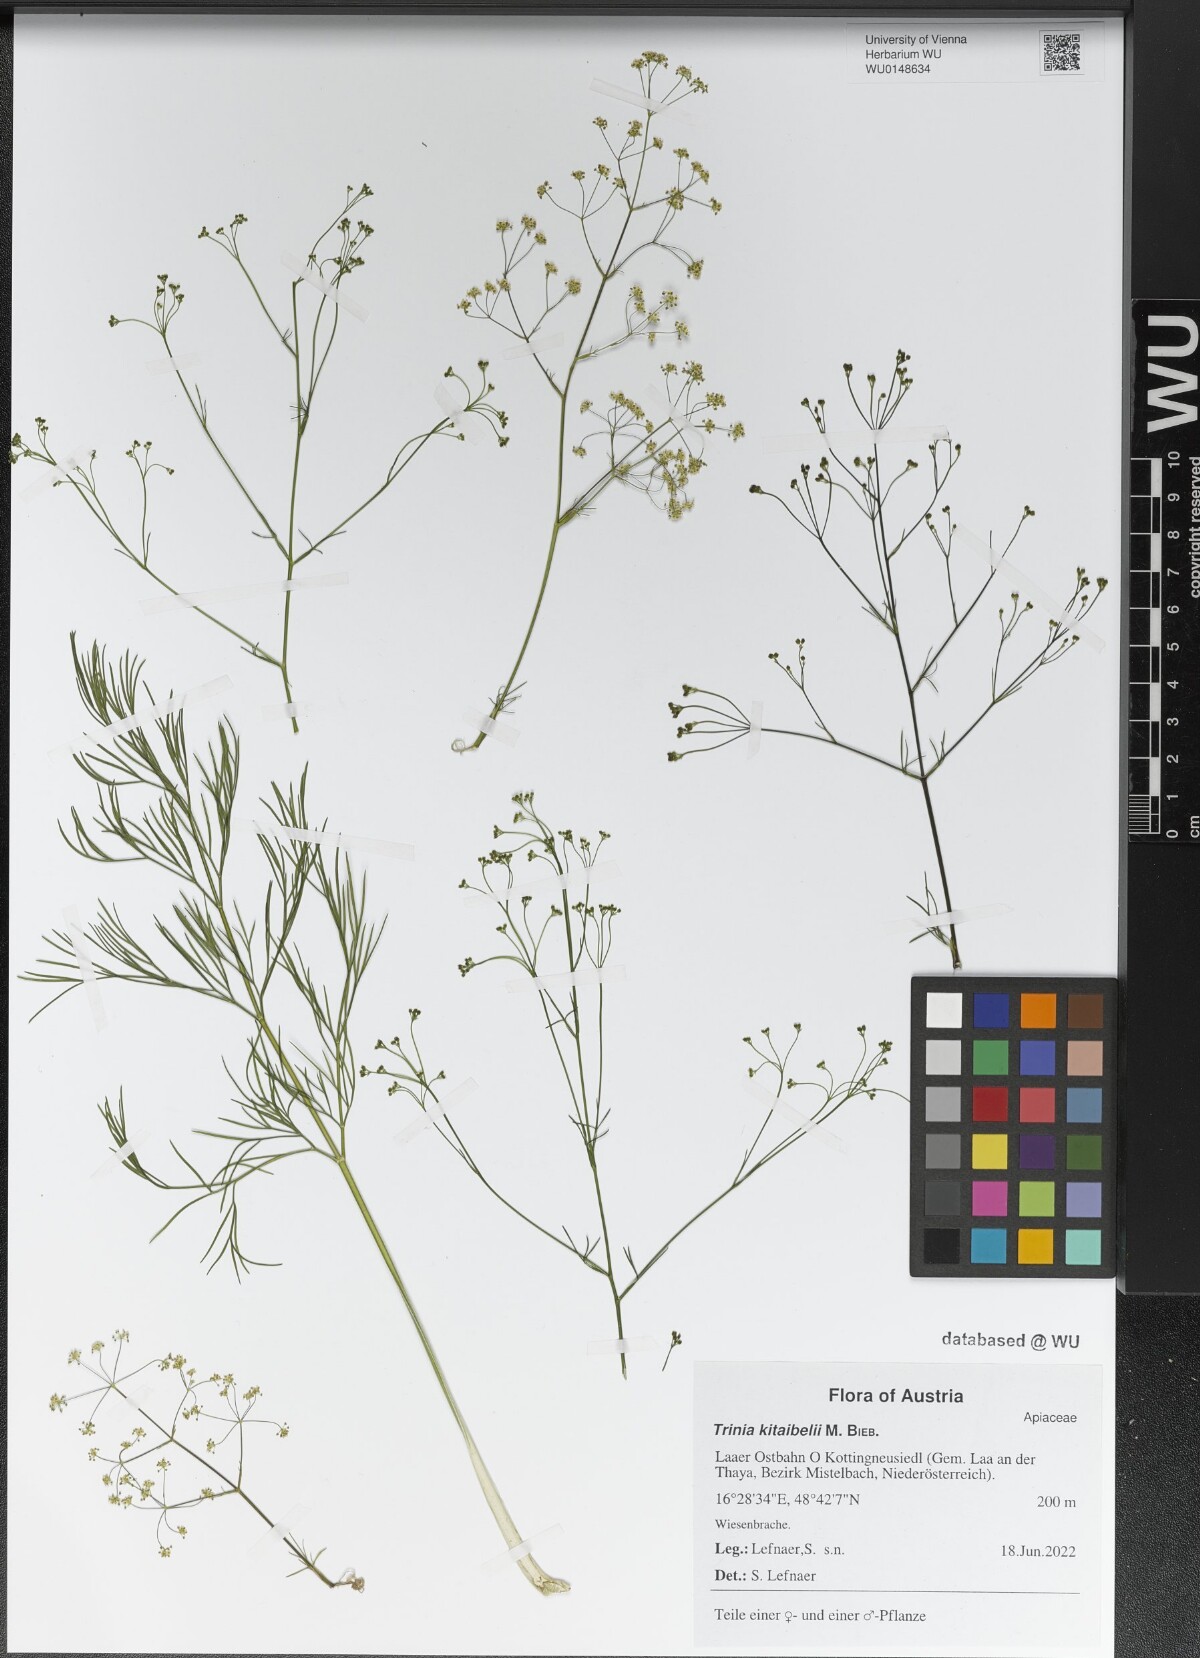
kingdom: Plantae
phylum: Tracheophyta
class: Magnoliopsida
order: Apiales
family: Apiaceae
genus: Trinia
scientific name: Trinia kitaibelii
